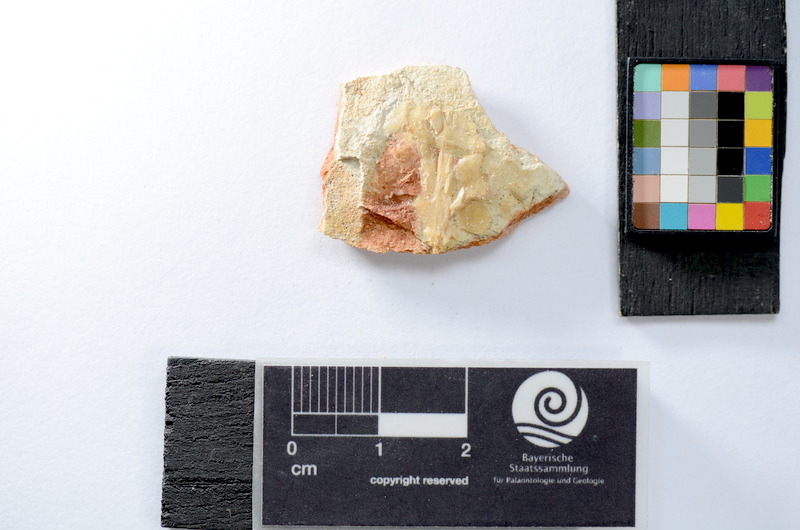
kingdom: Animalia
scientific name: Animalia
